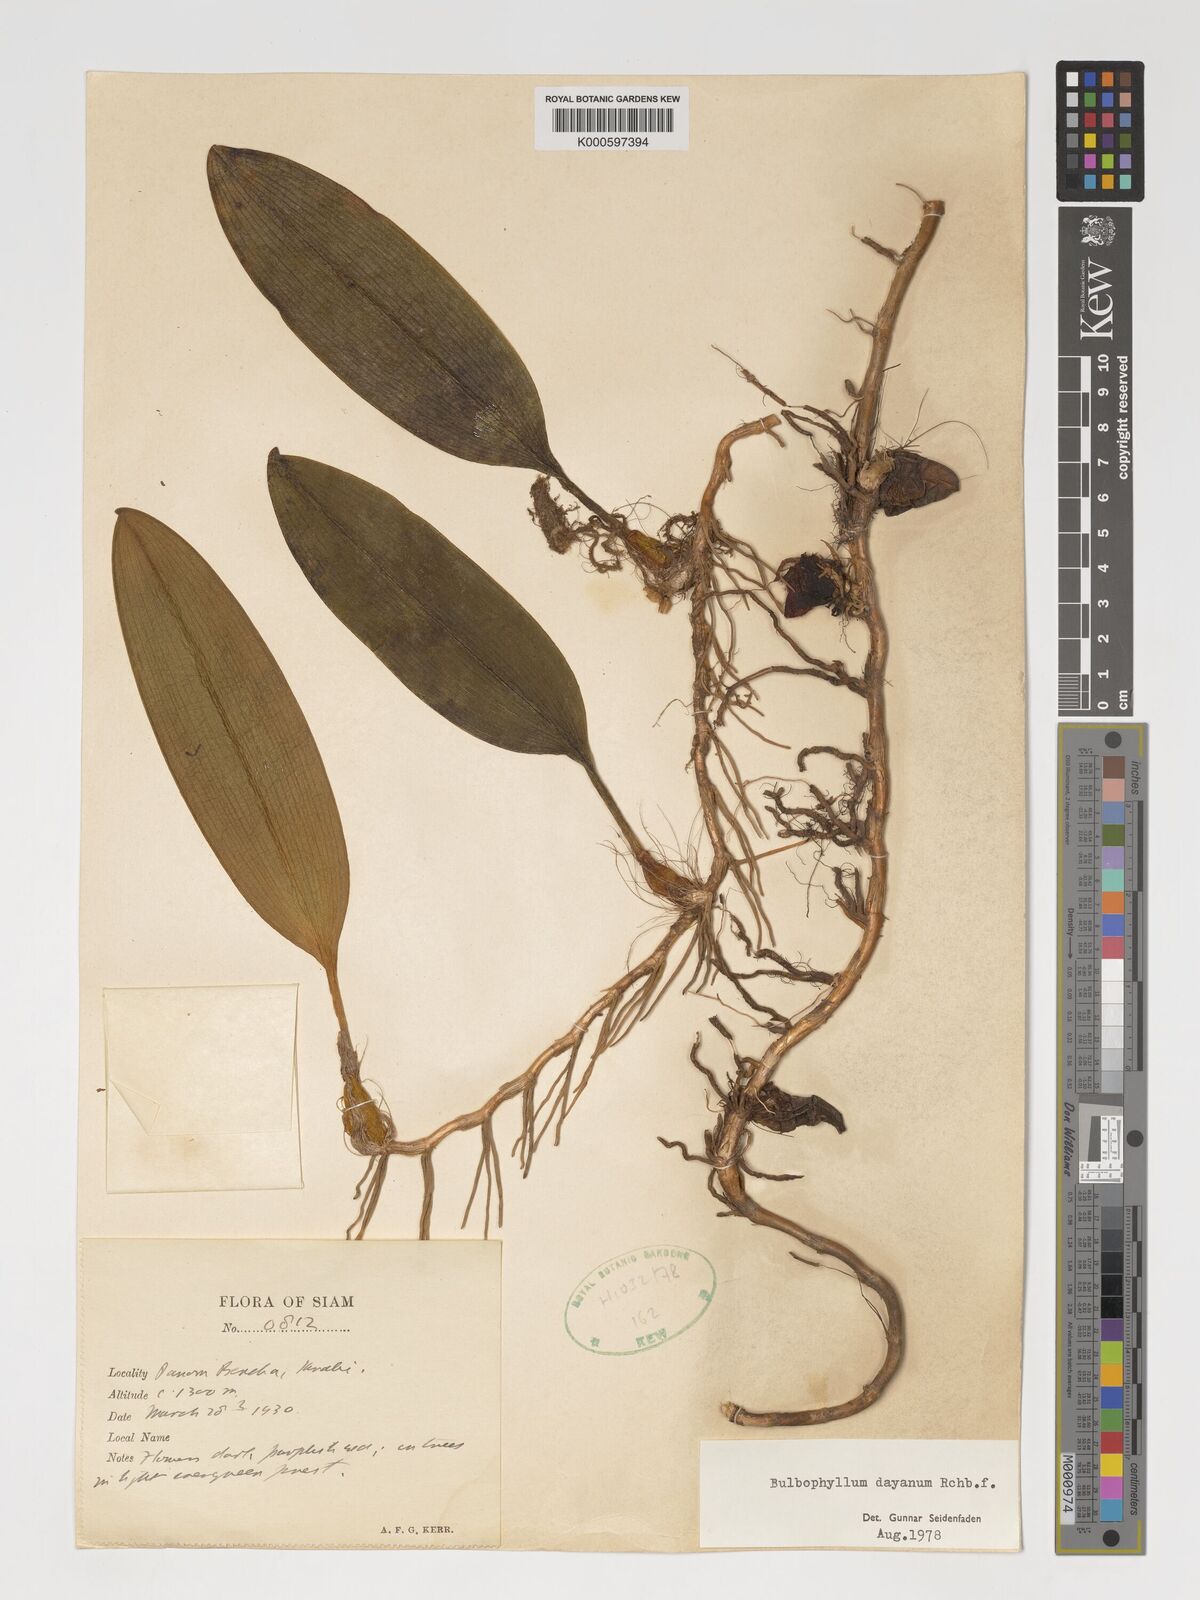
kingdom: Plantae
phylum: Tracheophyta
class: Liliopsida
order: Asparagales
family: Orchidaceae
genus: Bulbophyllum
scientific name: Bulbophyllum dayanum
